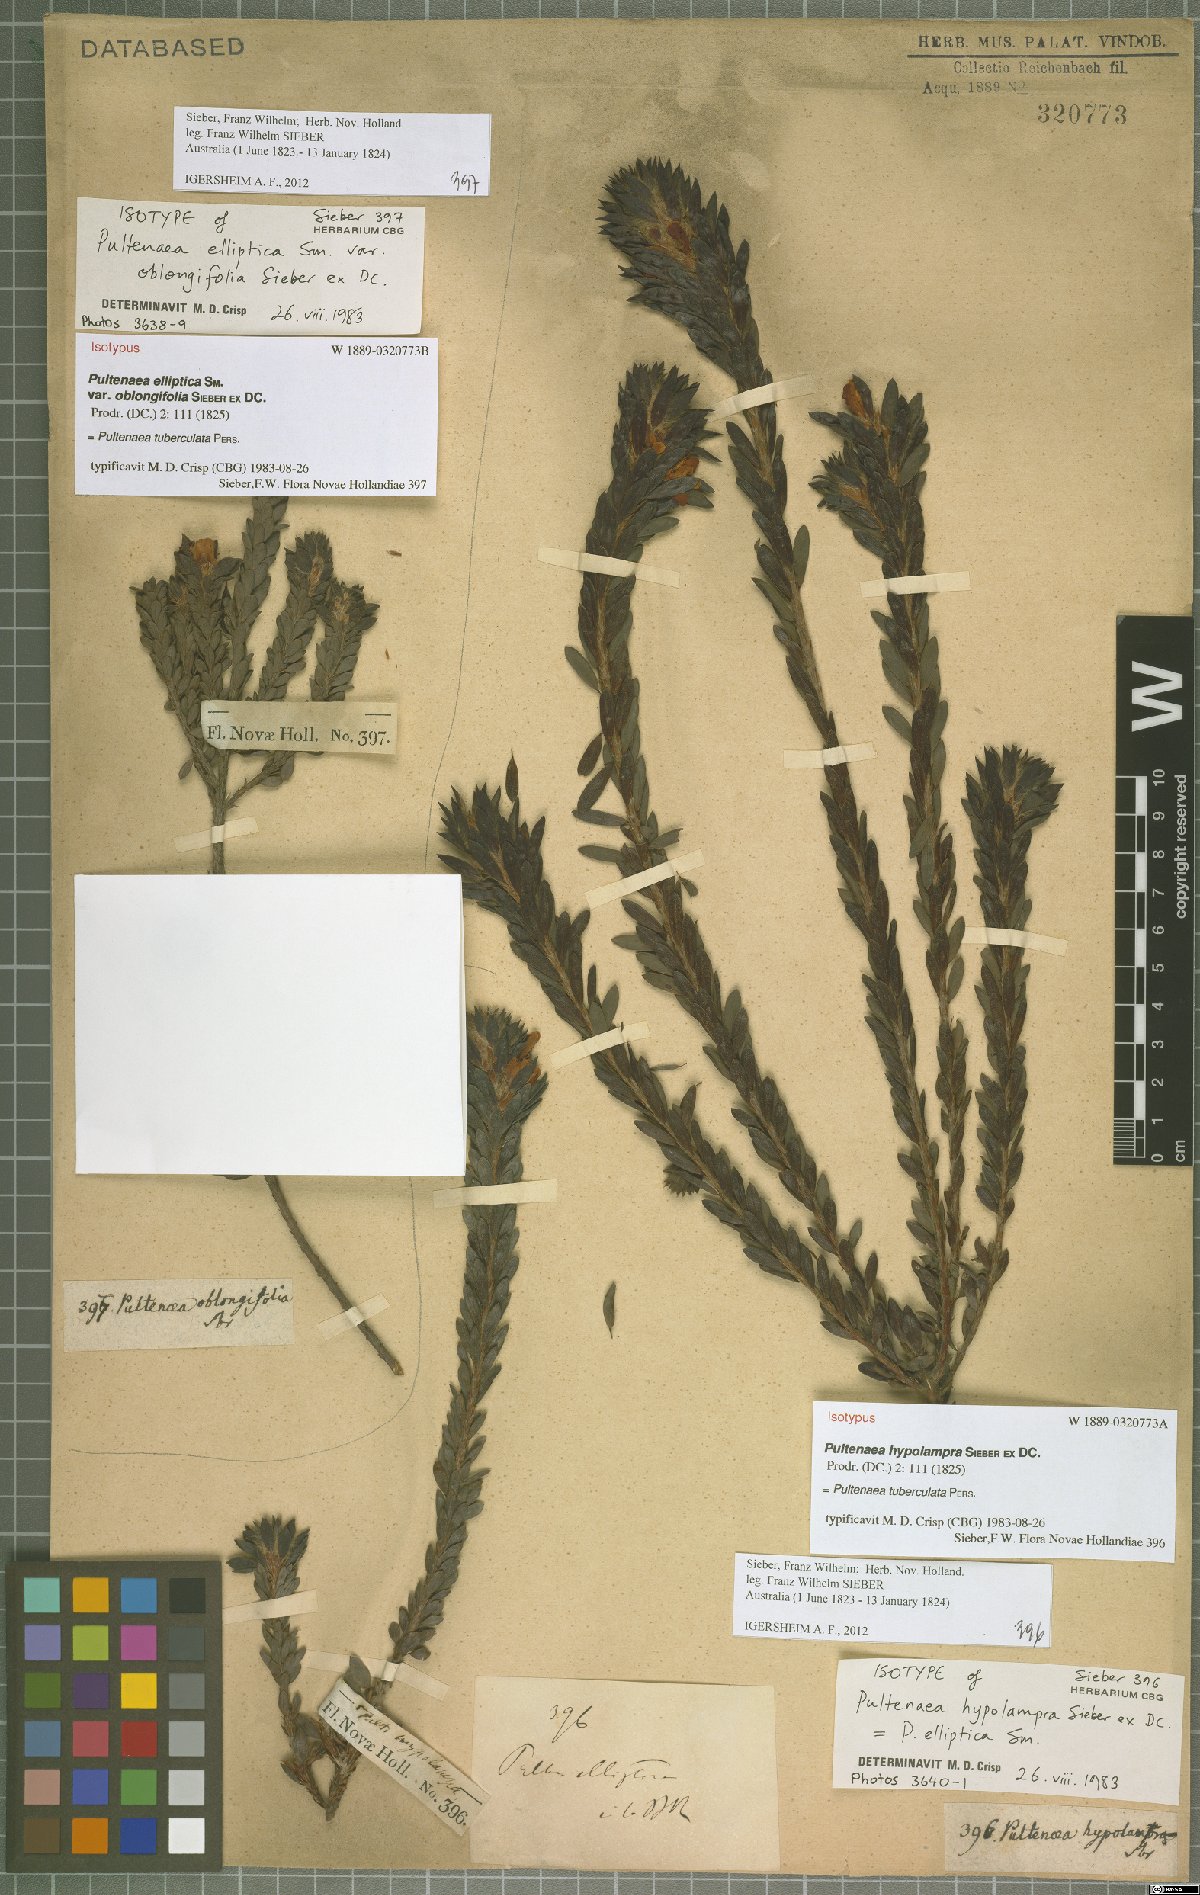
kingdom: Plantae
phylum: Tracheophyta
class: Magnoliopsida
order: Fabales
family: Fabaceae
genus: Pultenaea
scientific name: Pultenaea tuberculata
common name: Wreath bush-pea
